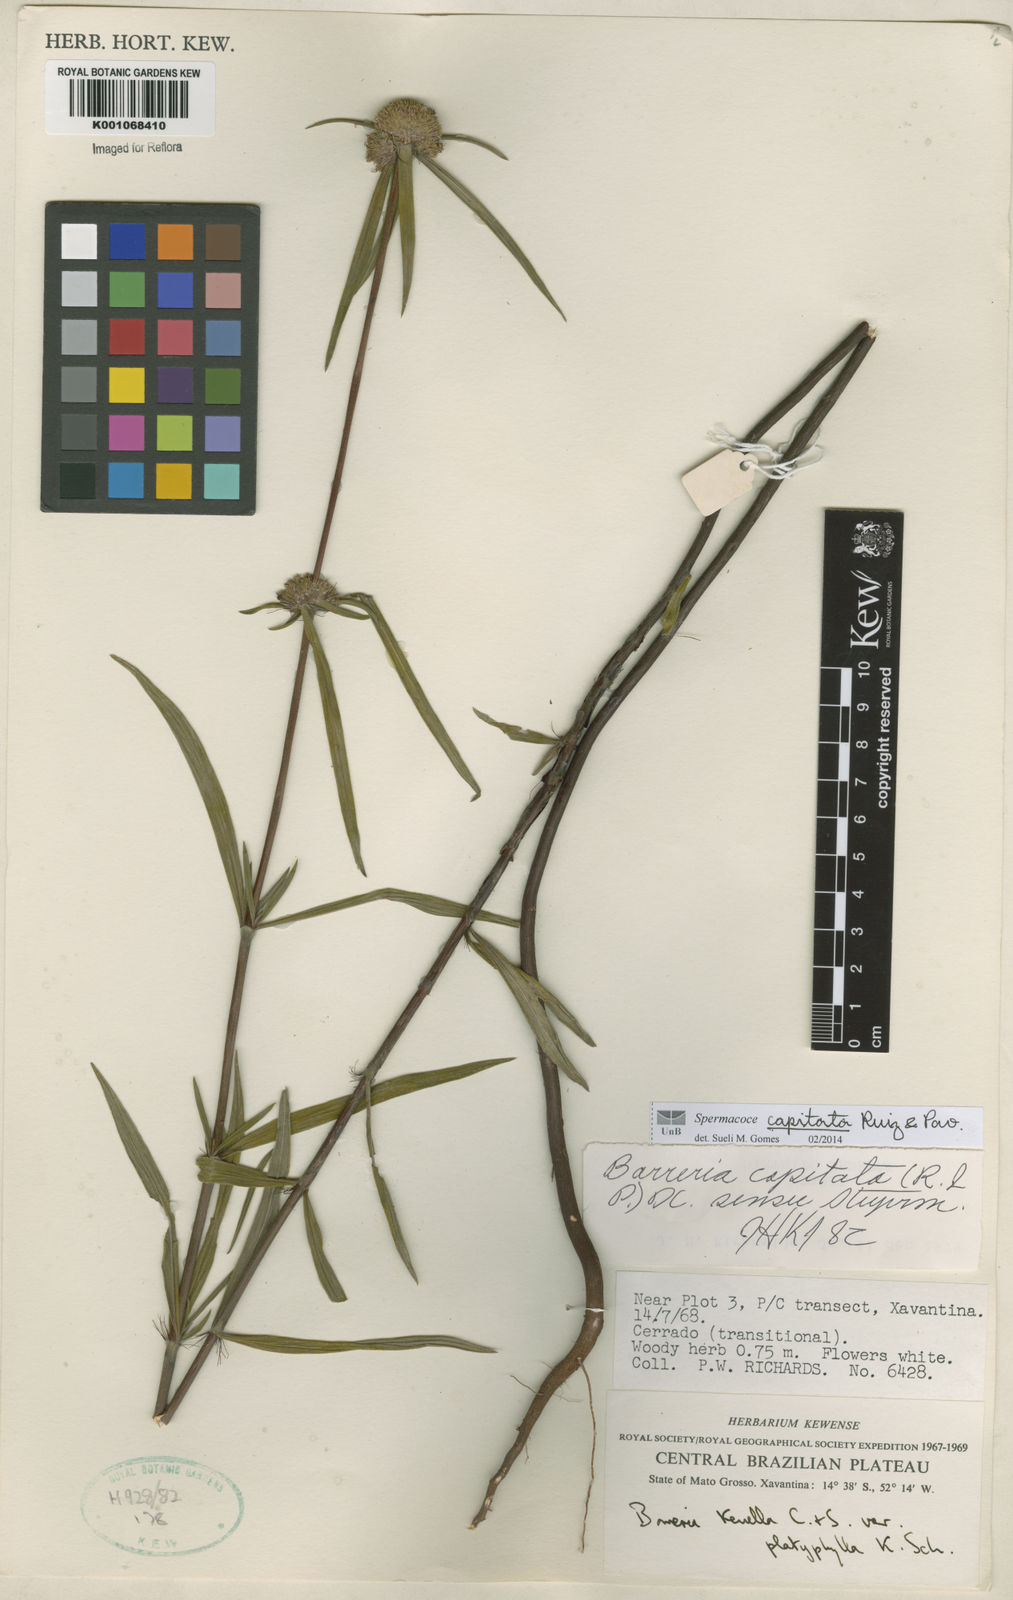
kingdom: Plantae
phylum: Tracheophyta
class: Magnoliopsida
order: Gentianales
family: Rubiaceae
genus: Spermacoce
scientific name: Spermacoce capitata
